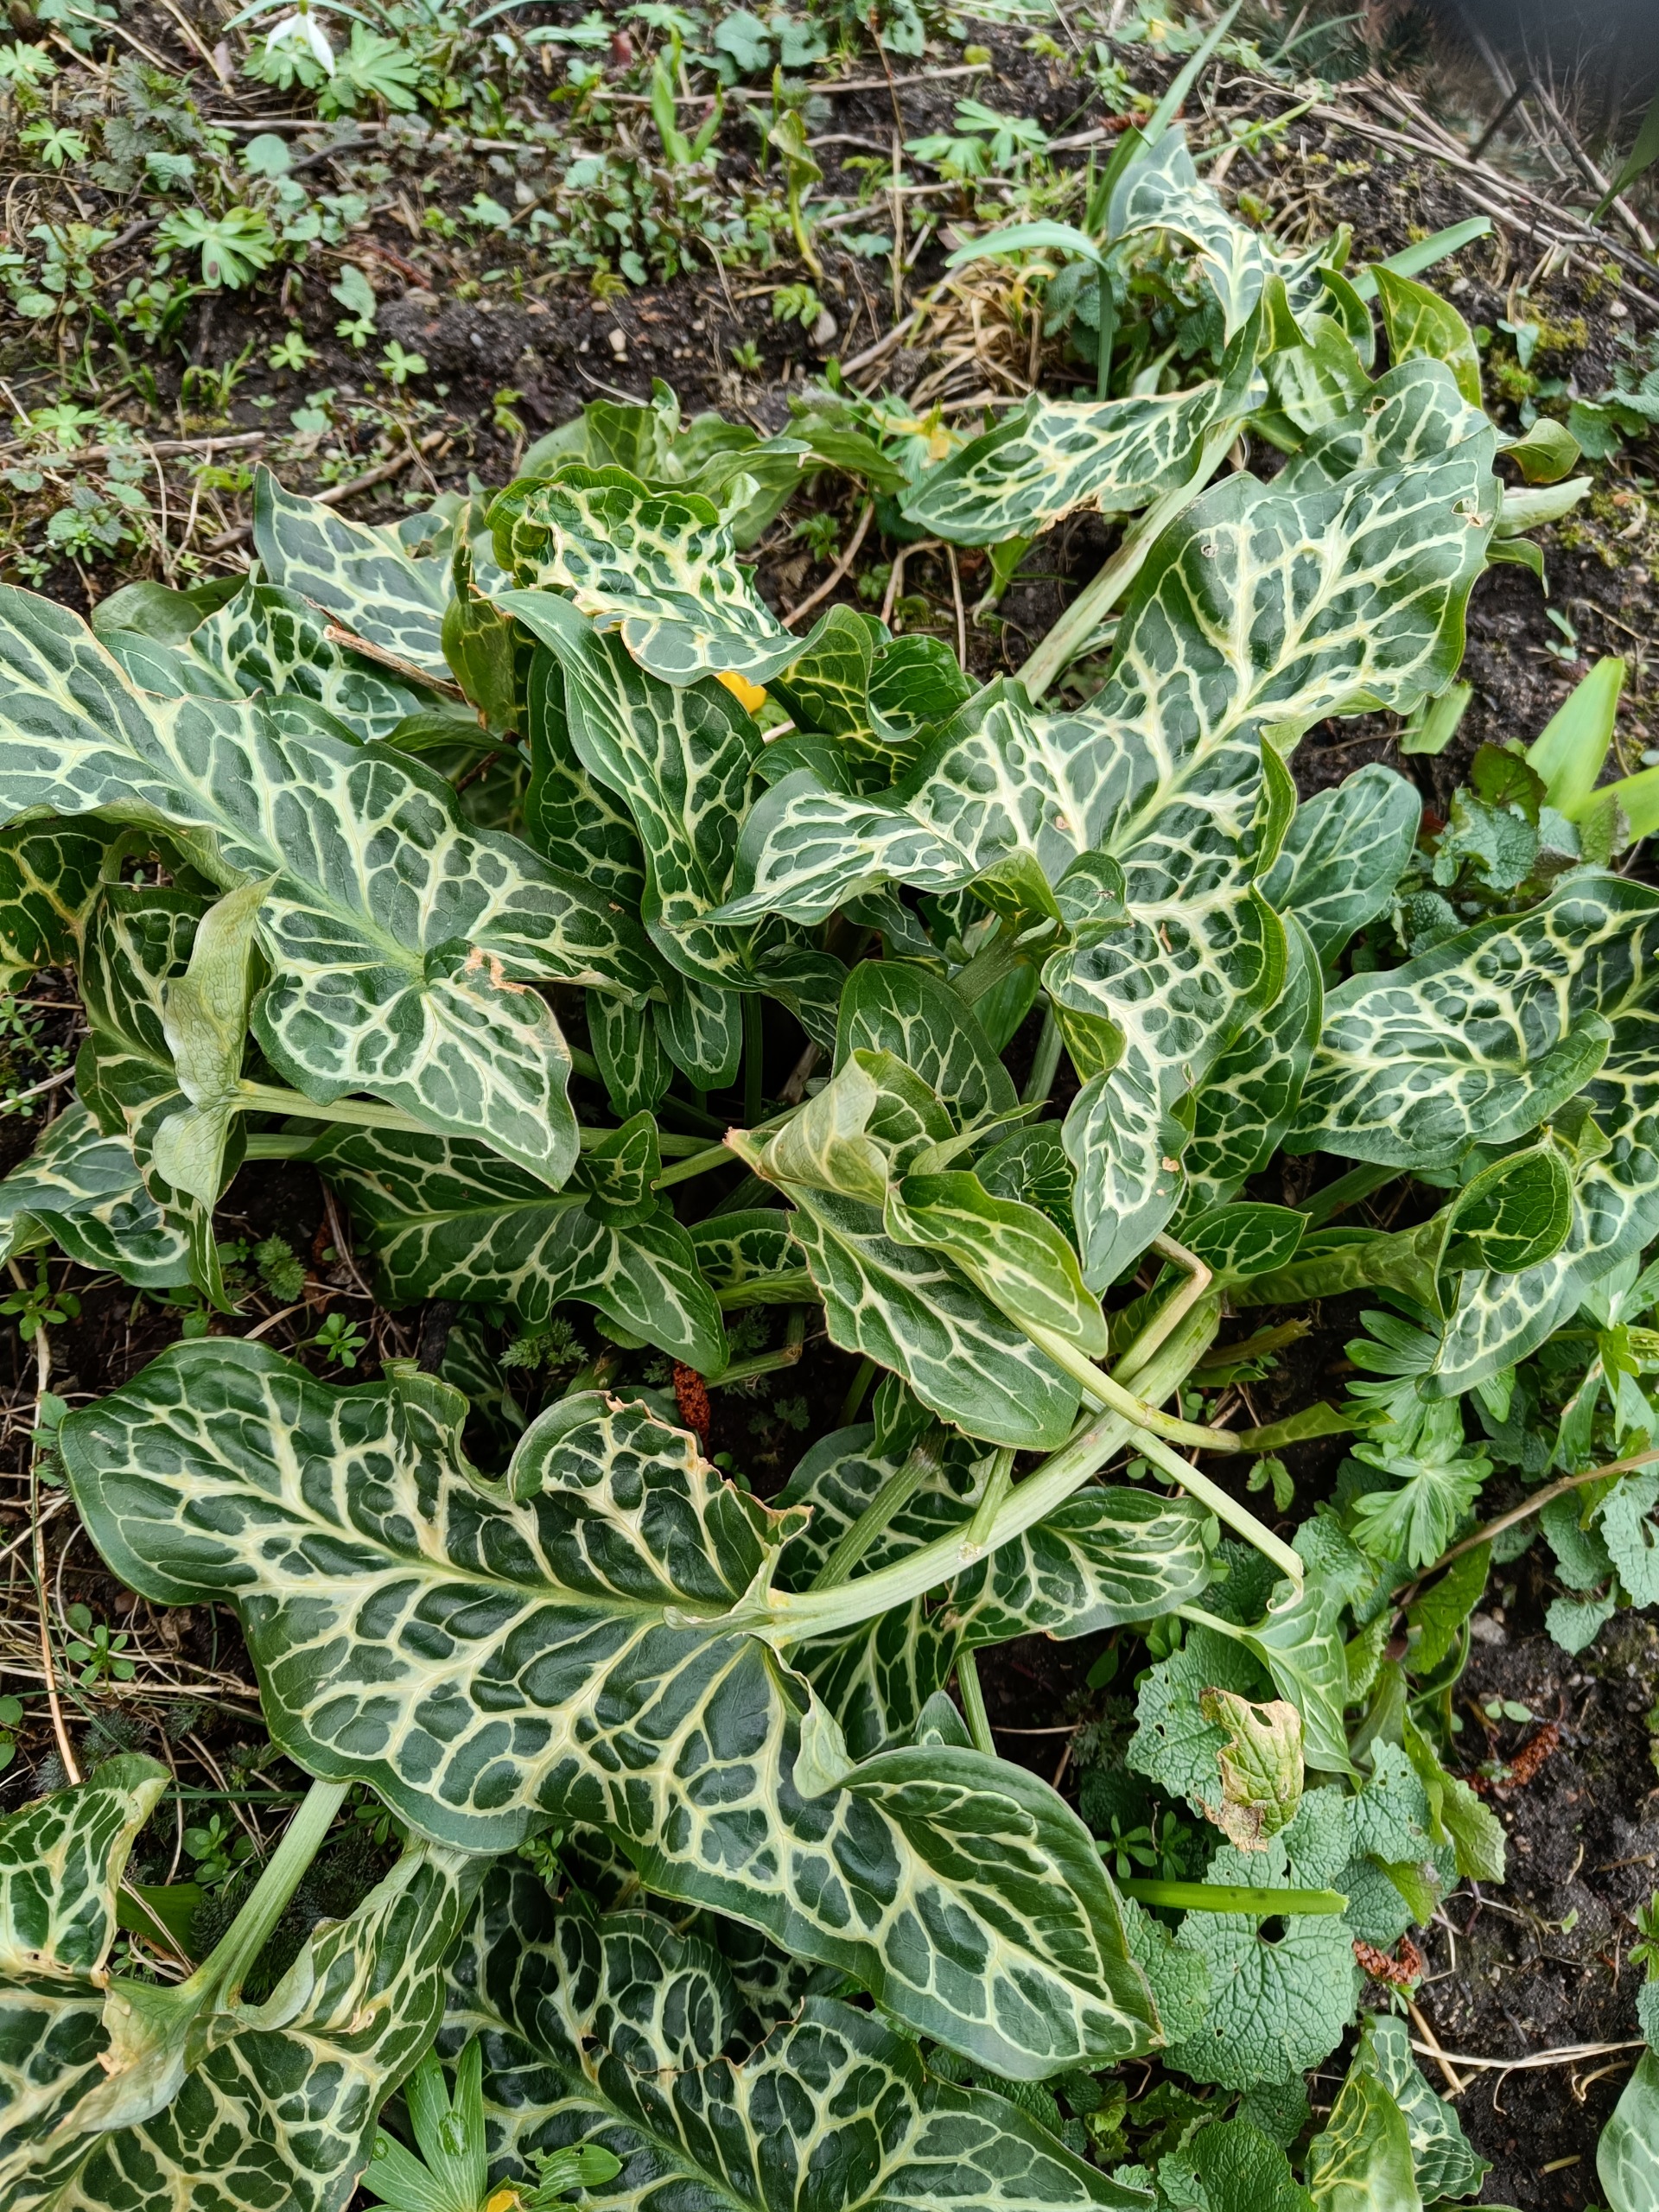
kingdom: Plantae
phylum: Tracheophyta
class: Liliopsida
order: Alismatales
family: Araceae
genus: Arum
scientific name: Arum italicum
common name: Italiensk arum
